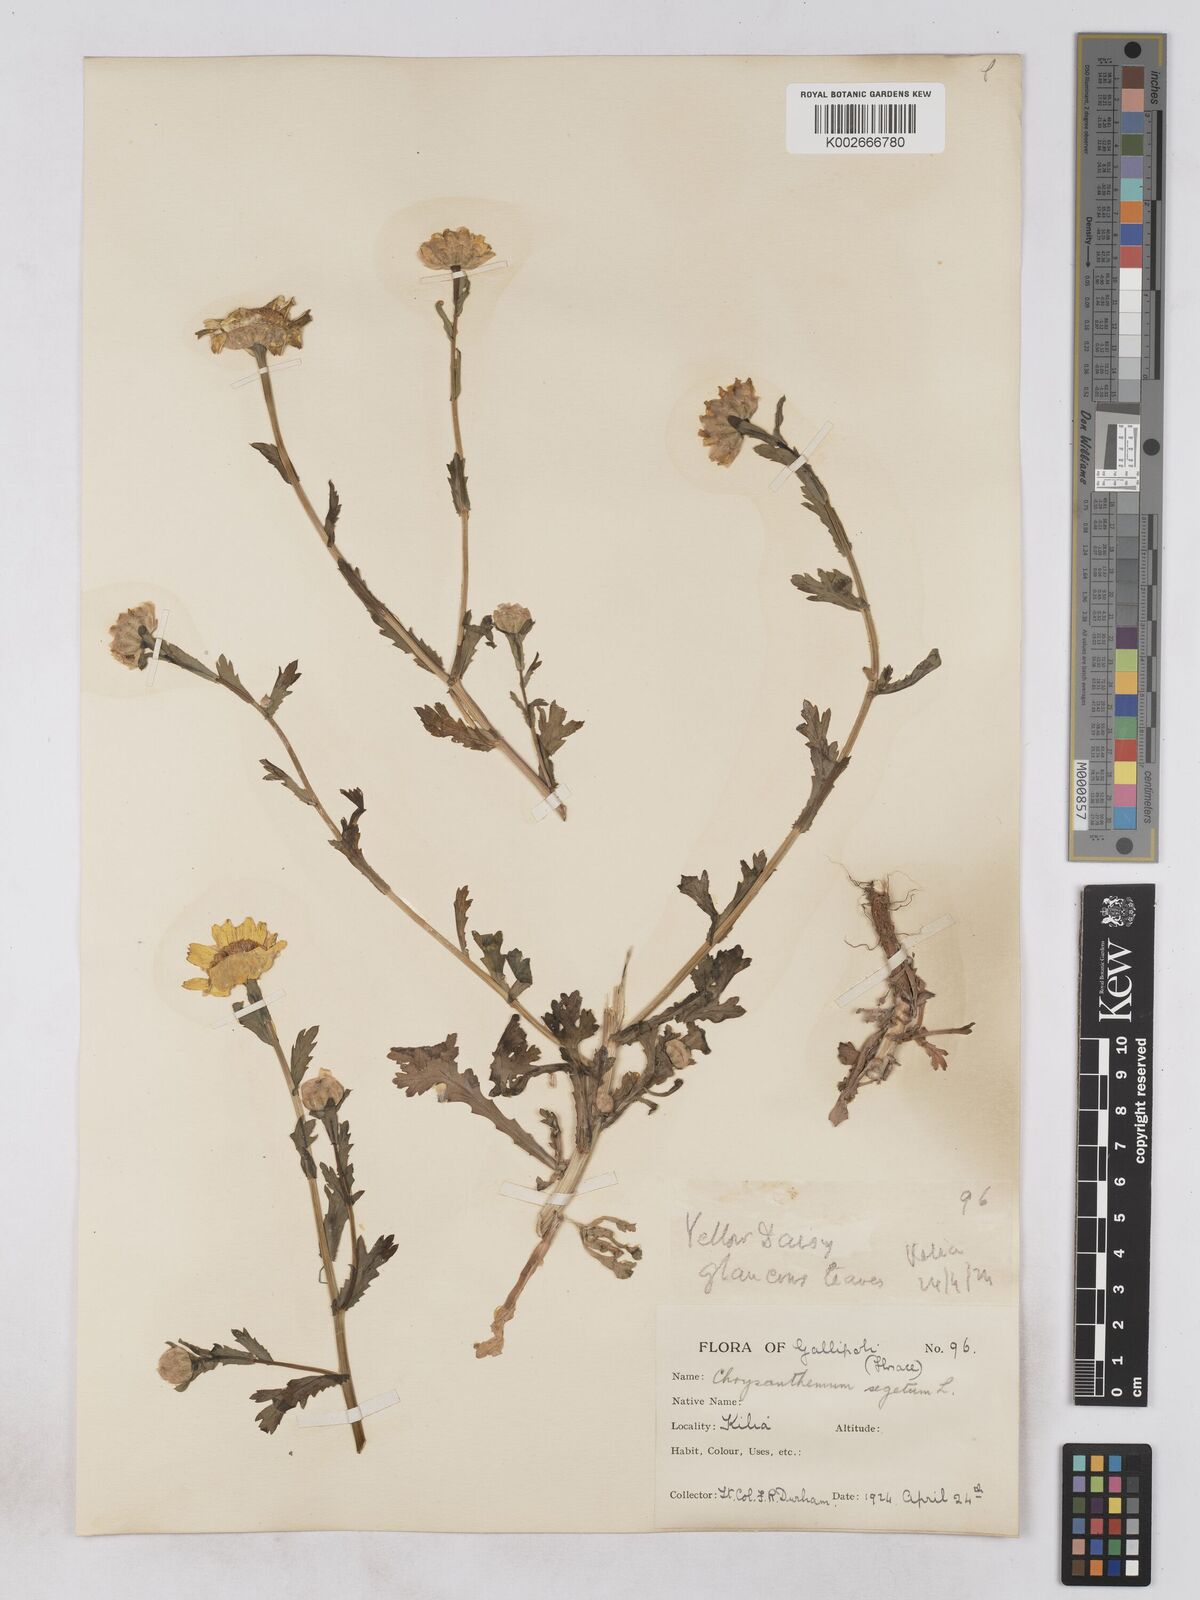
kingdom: Plantae
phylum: Tracheophyta
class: Magnoliopsida
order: Asterales
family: Asteraceae
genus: Glebionis
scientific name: Glebionis segetum
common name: Corndaisy
